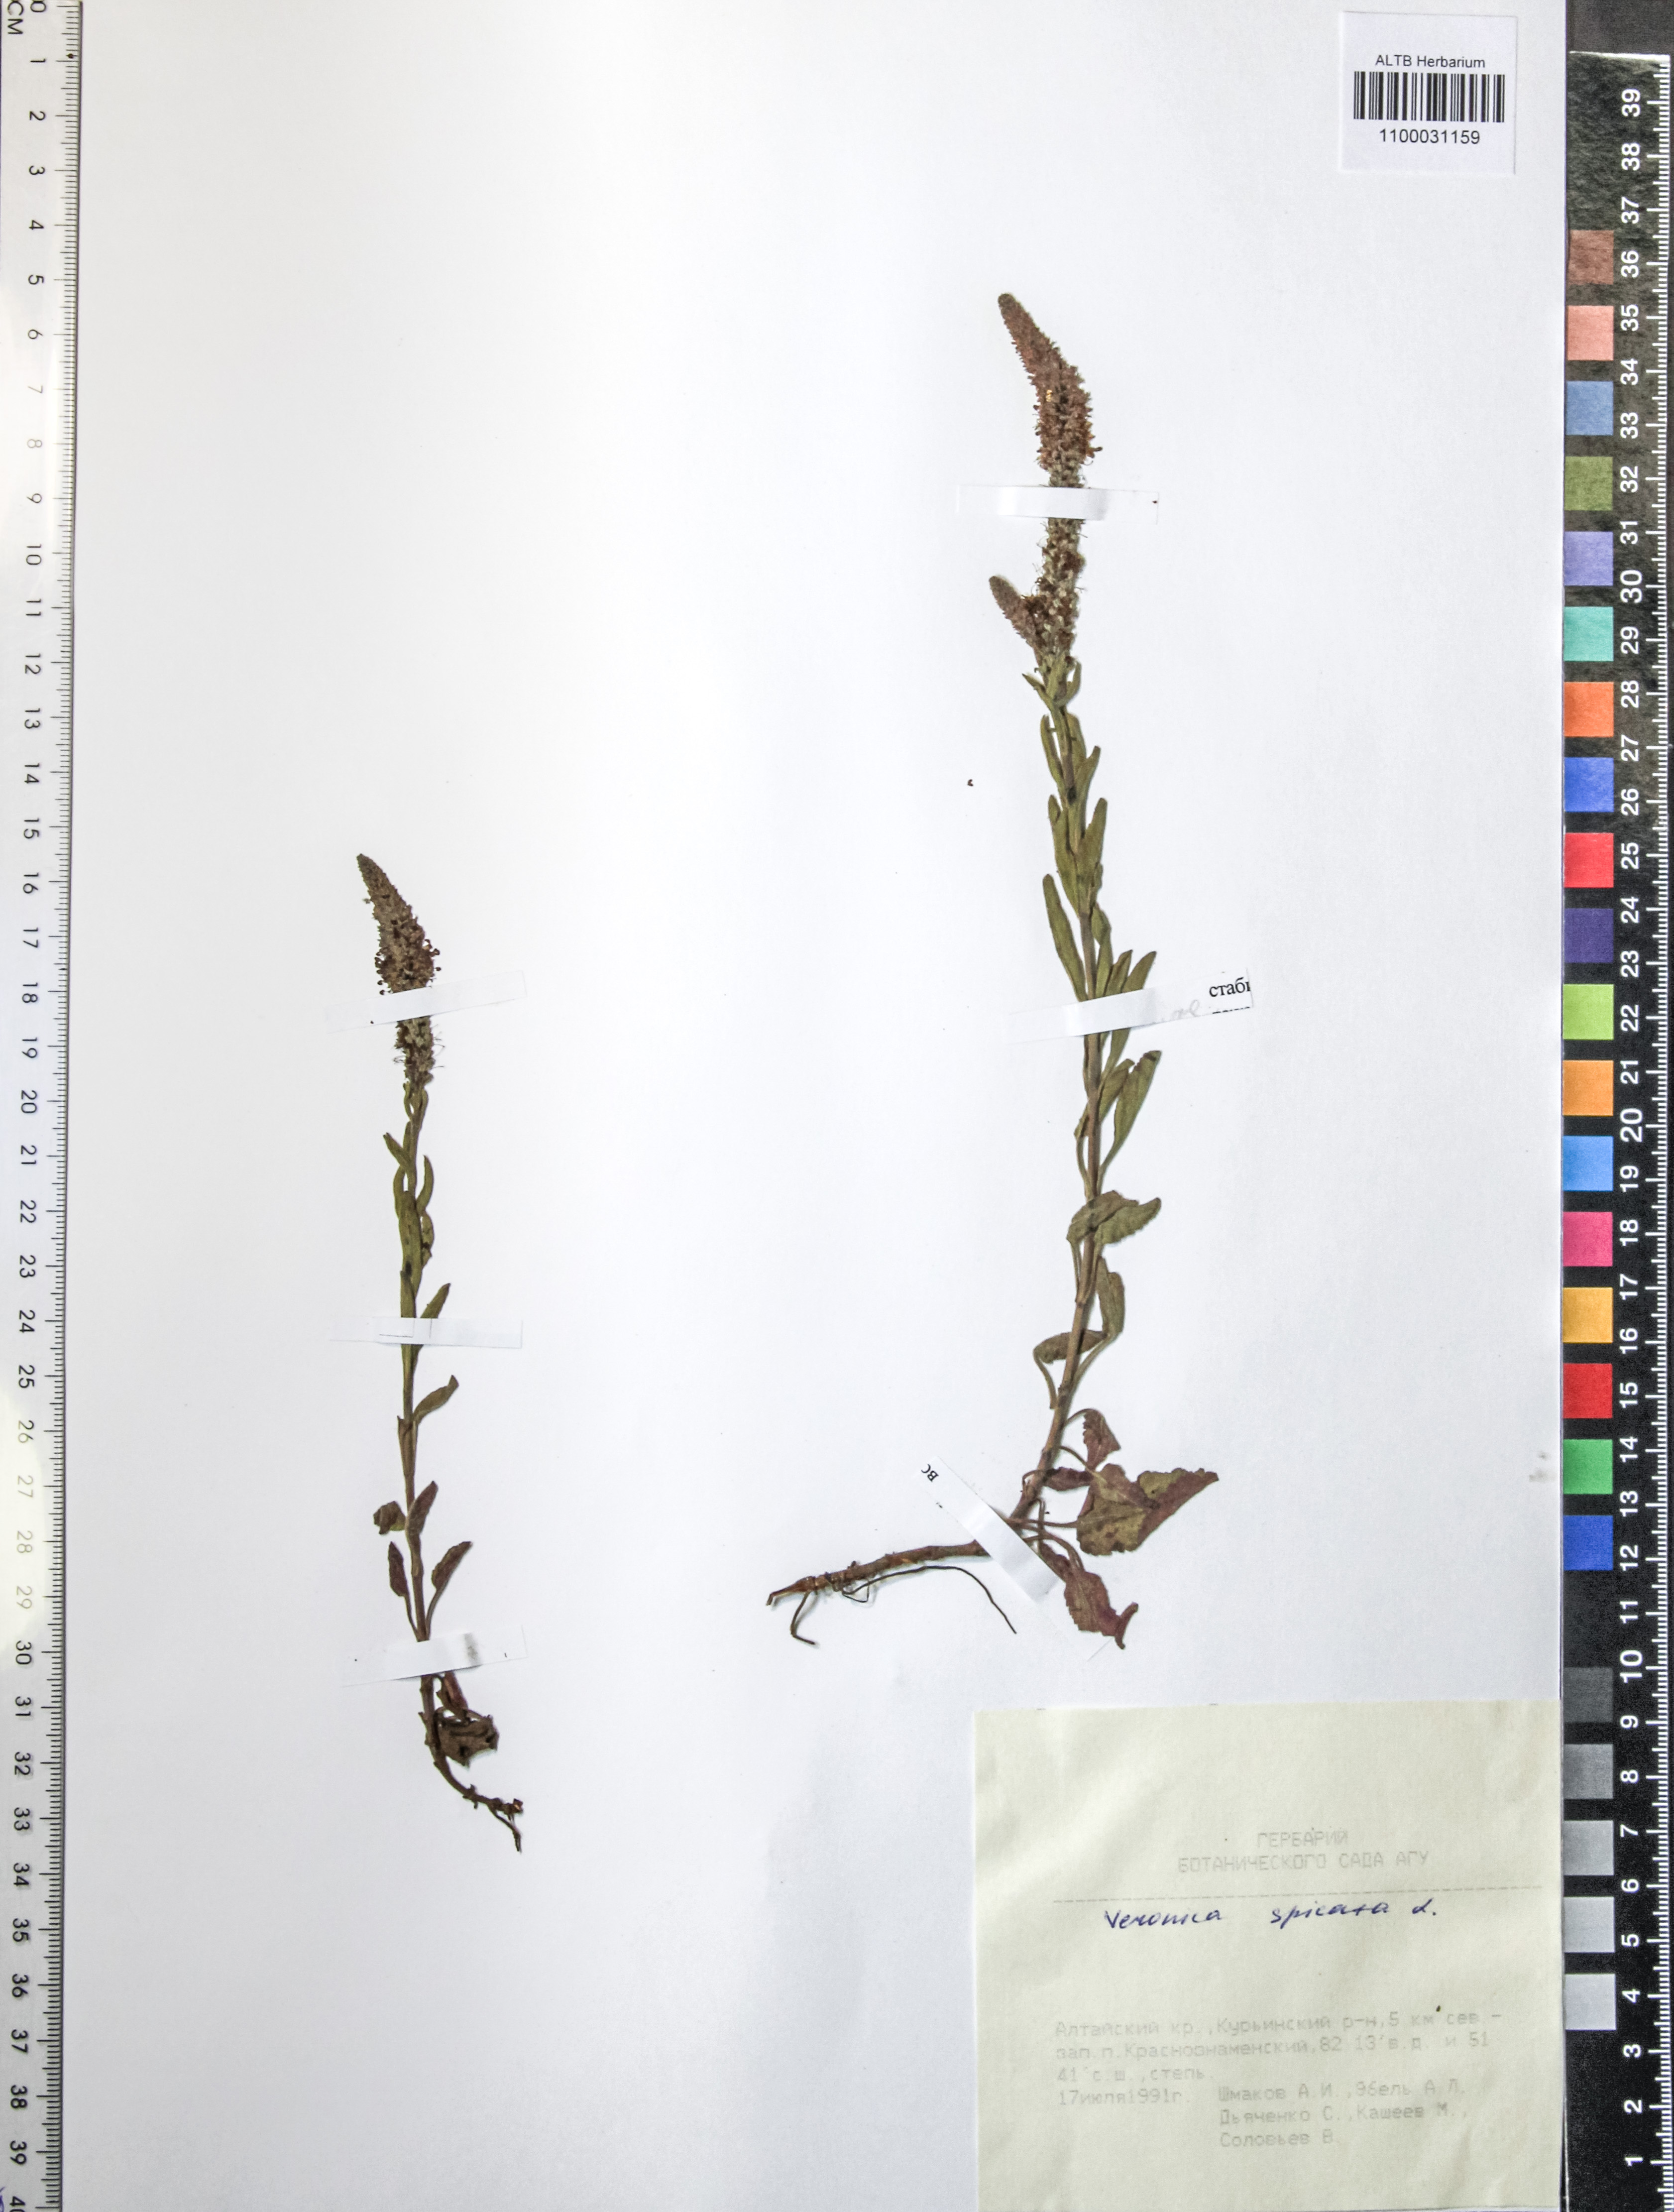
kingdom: Plantae
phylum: Tracheophyta
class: Magnoliopsida
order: Lamiales
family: Plantaginaceae
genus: Veronica
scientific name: Veronica spicata
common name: Spiked speedwell
